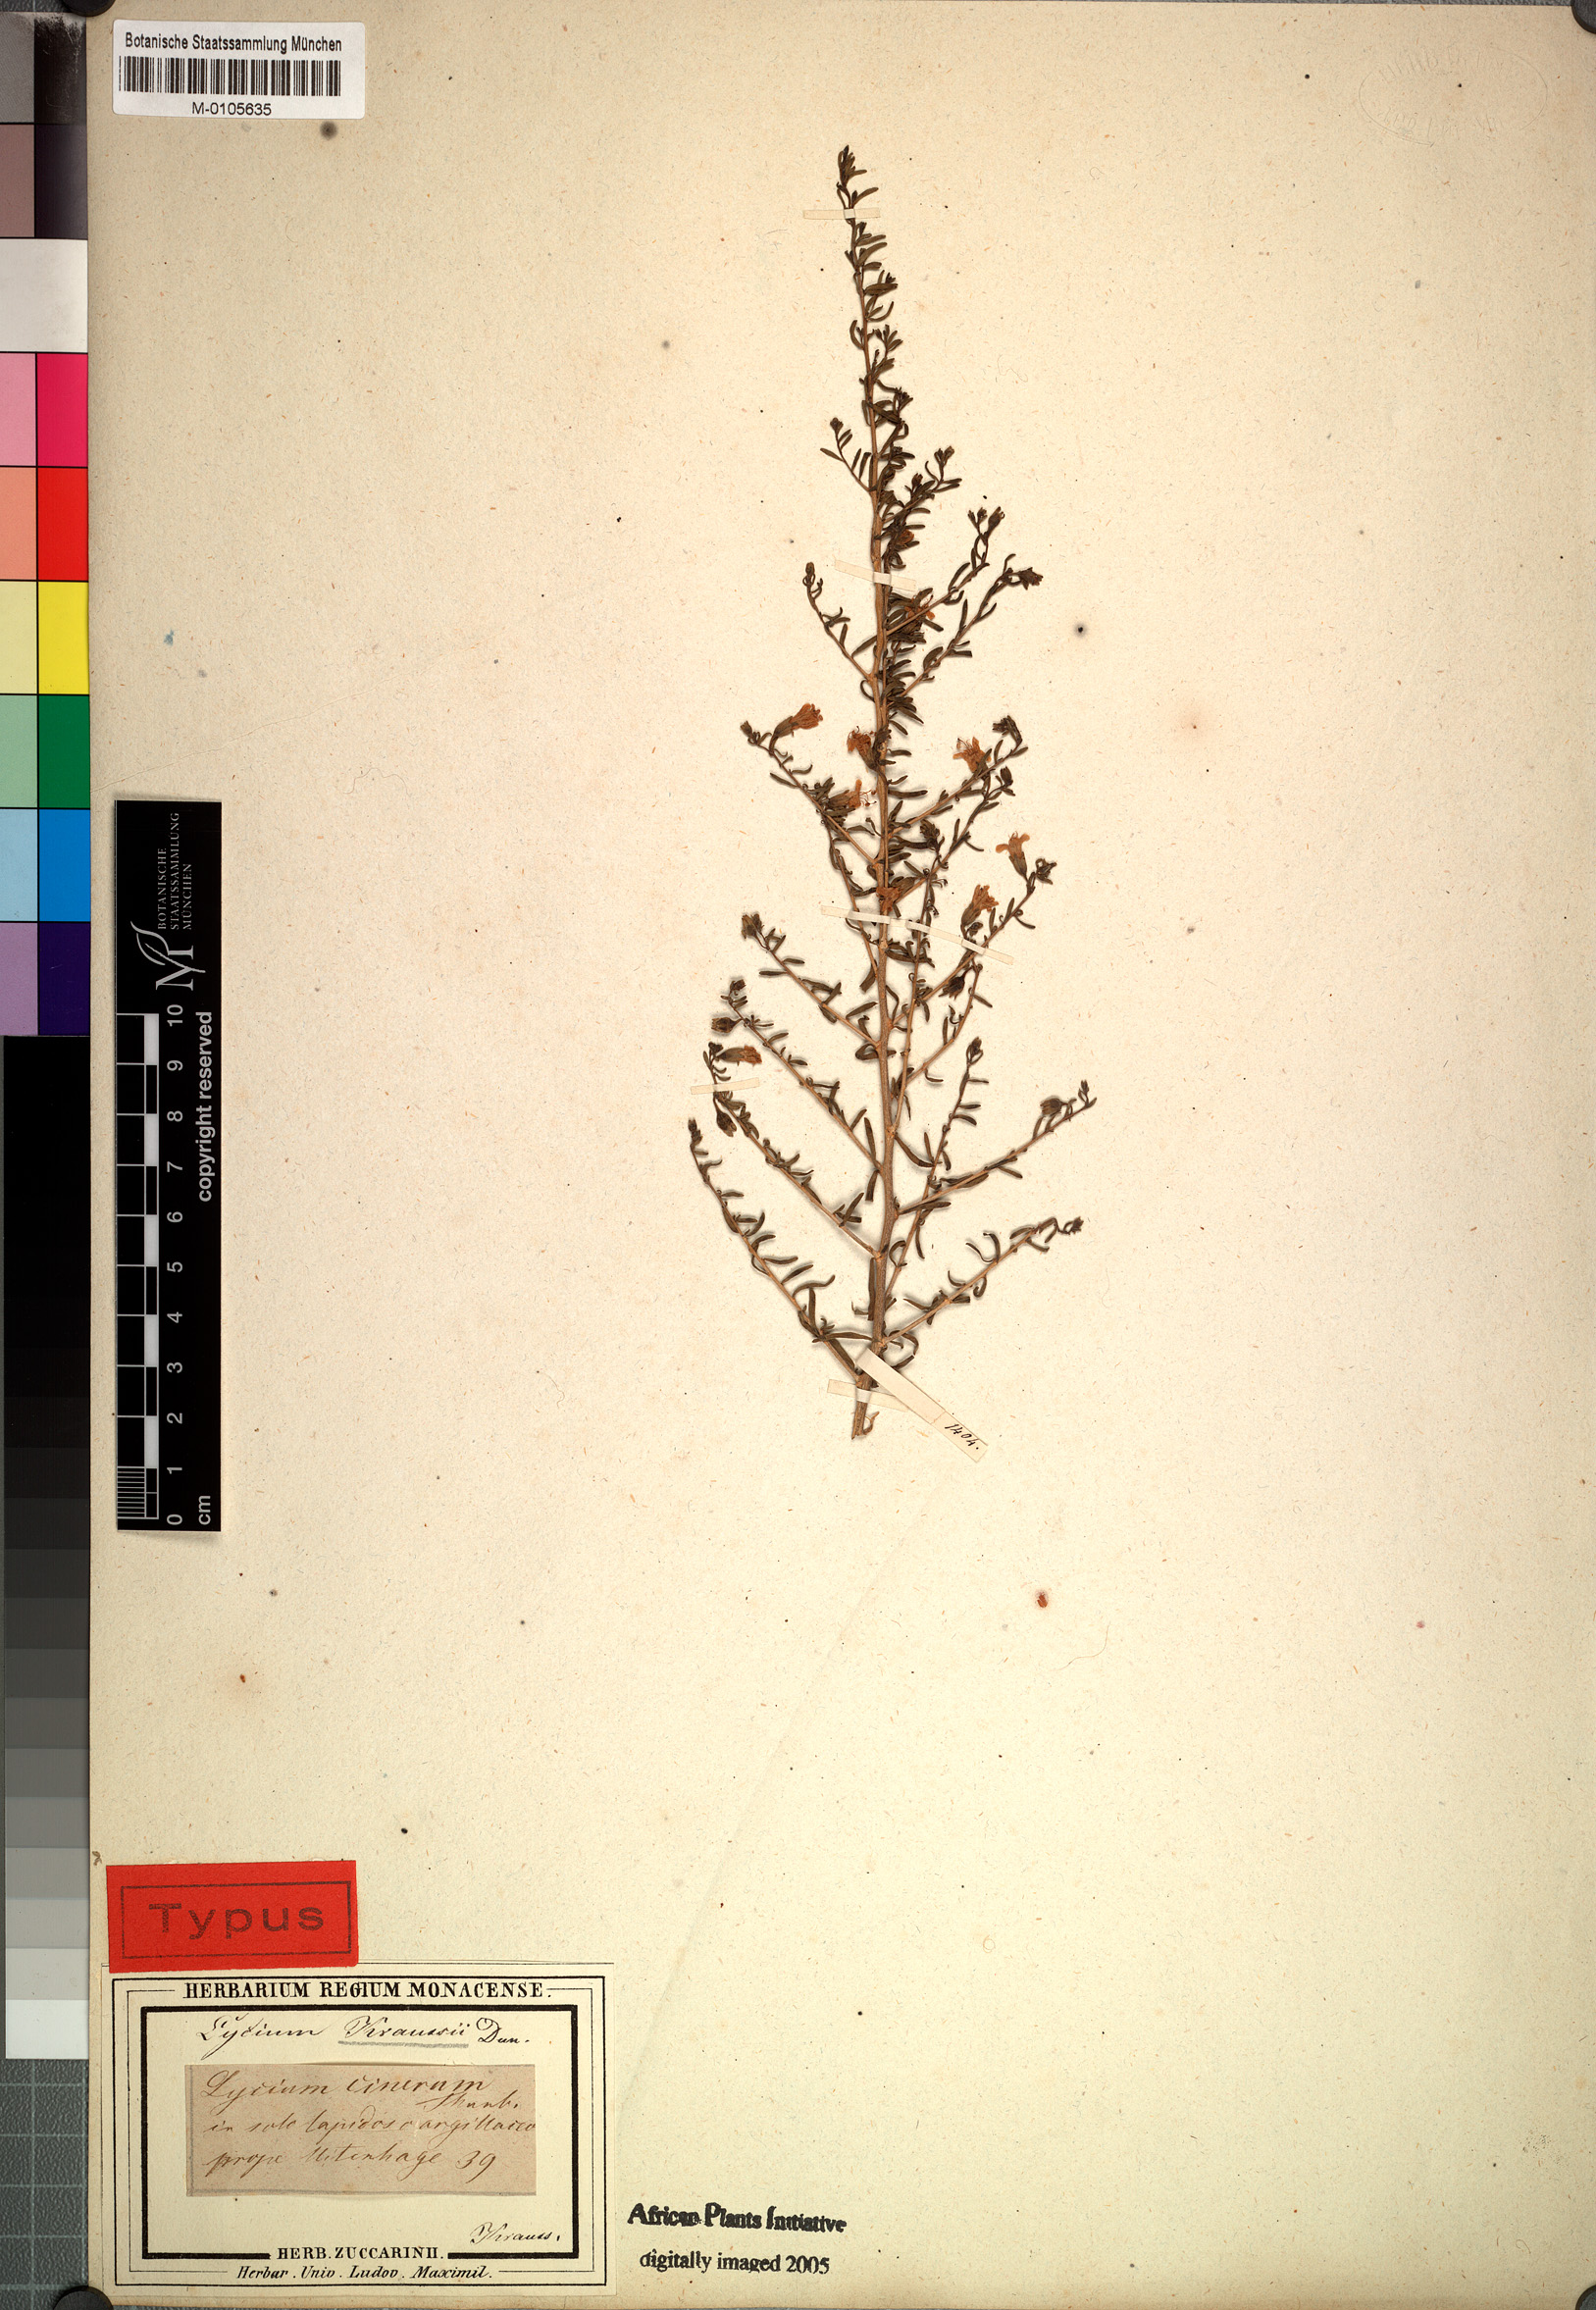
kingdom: Plantae
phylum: Tracheophyta
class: Magnoliopsida
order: Solanales
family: Solanaceae
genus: Lycium
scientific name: Lycium horridum
